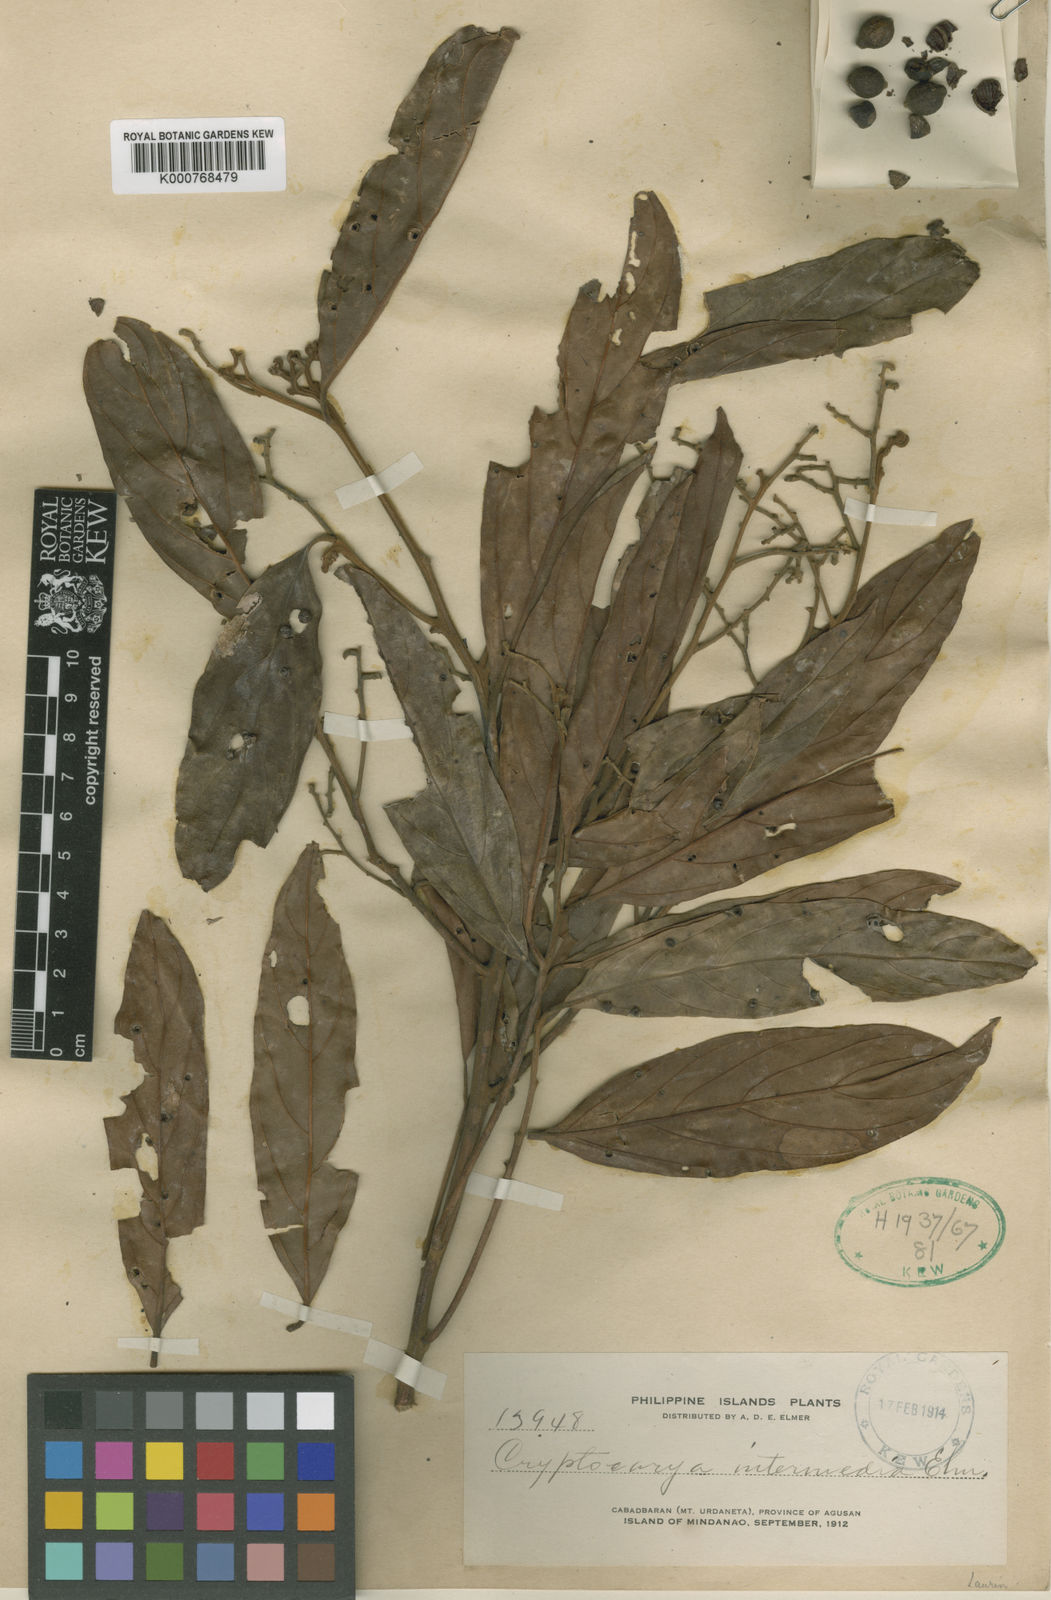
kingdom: Plantae
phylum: Tracheophyta
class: Magnoliopsida
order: Laurales
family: Lauraceae
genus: Cryptocarya
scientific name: Cryptocarya intermedia
